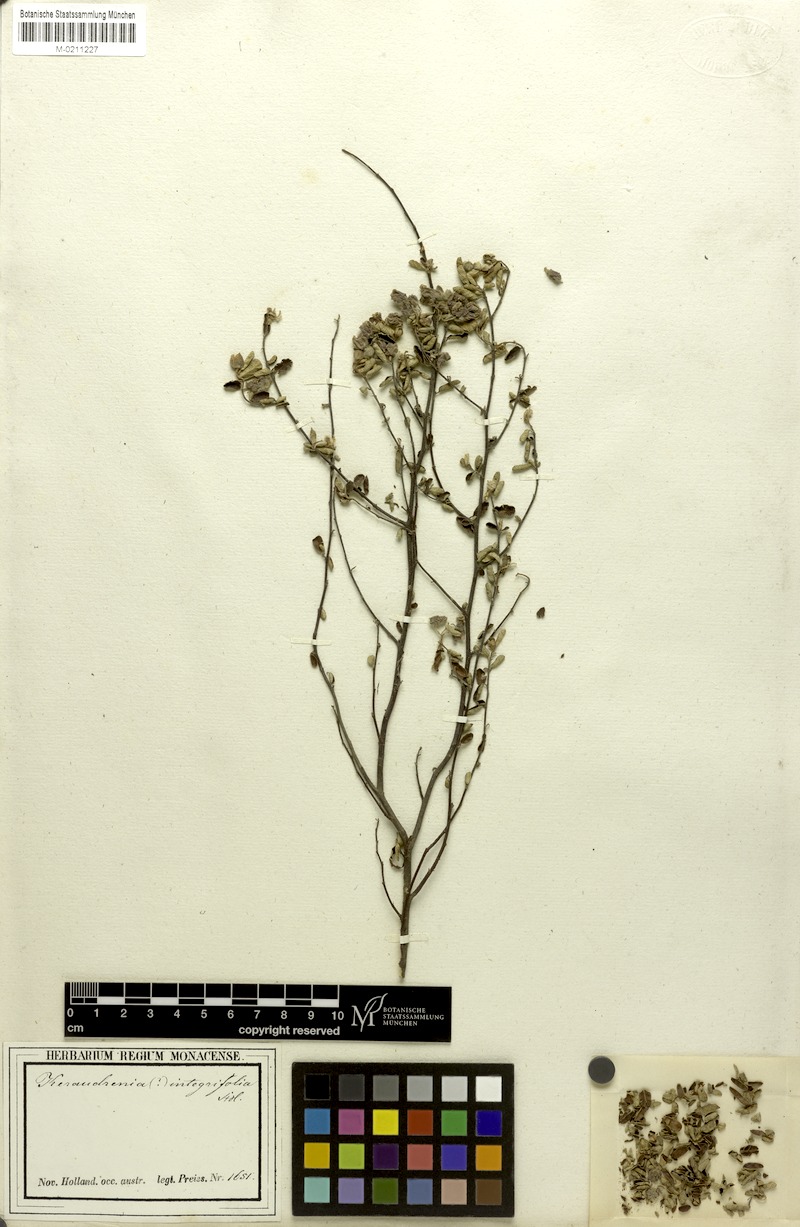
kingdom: Plantae
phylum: Tracheophyta
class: Magnoliopsida
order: Malvales
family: Malvaceae
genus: Seringia
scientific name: Seringia integrifolia
